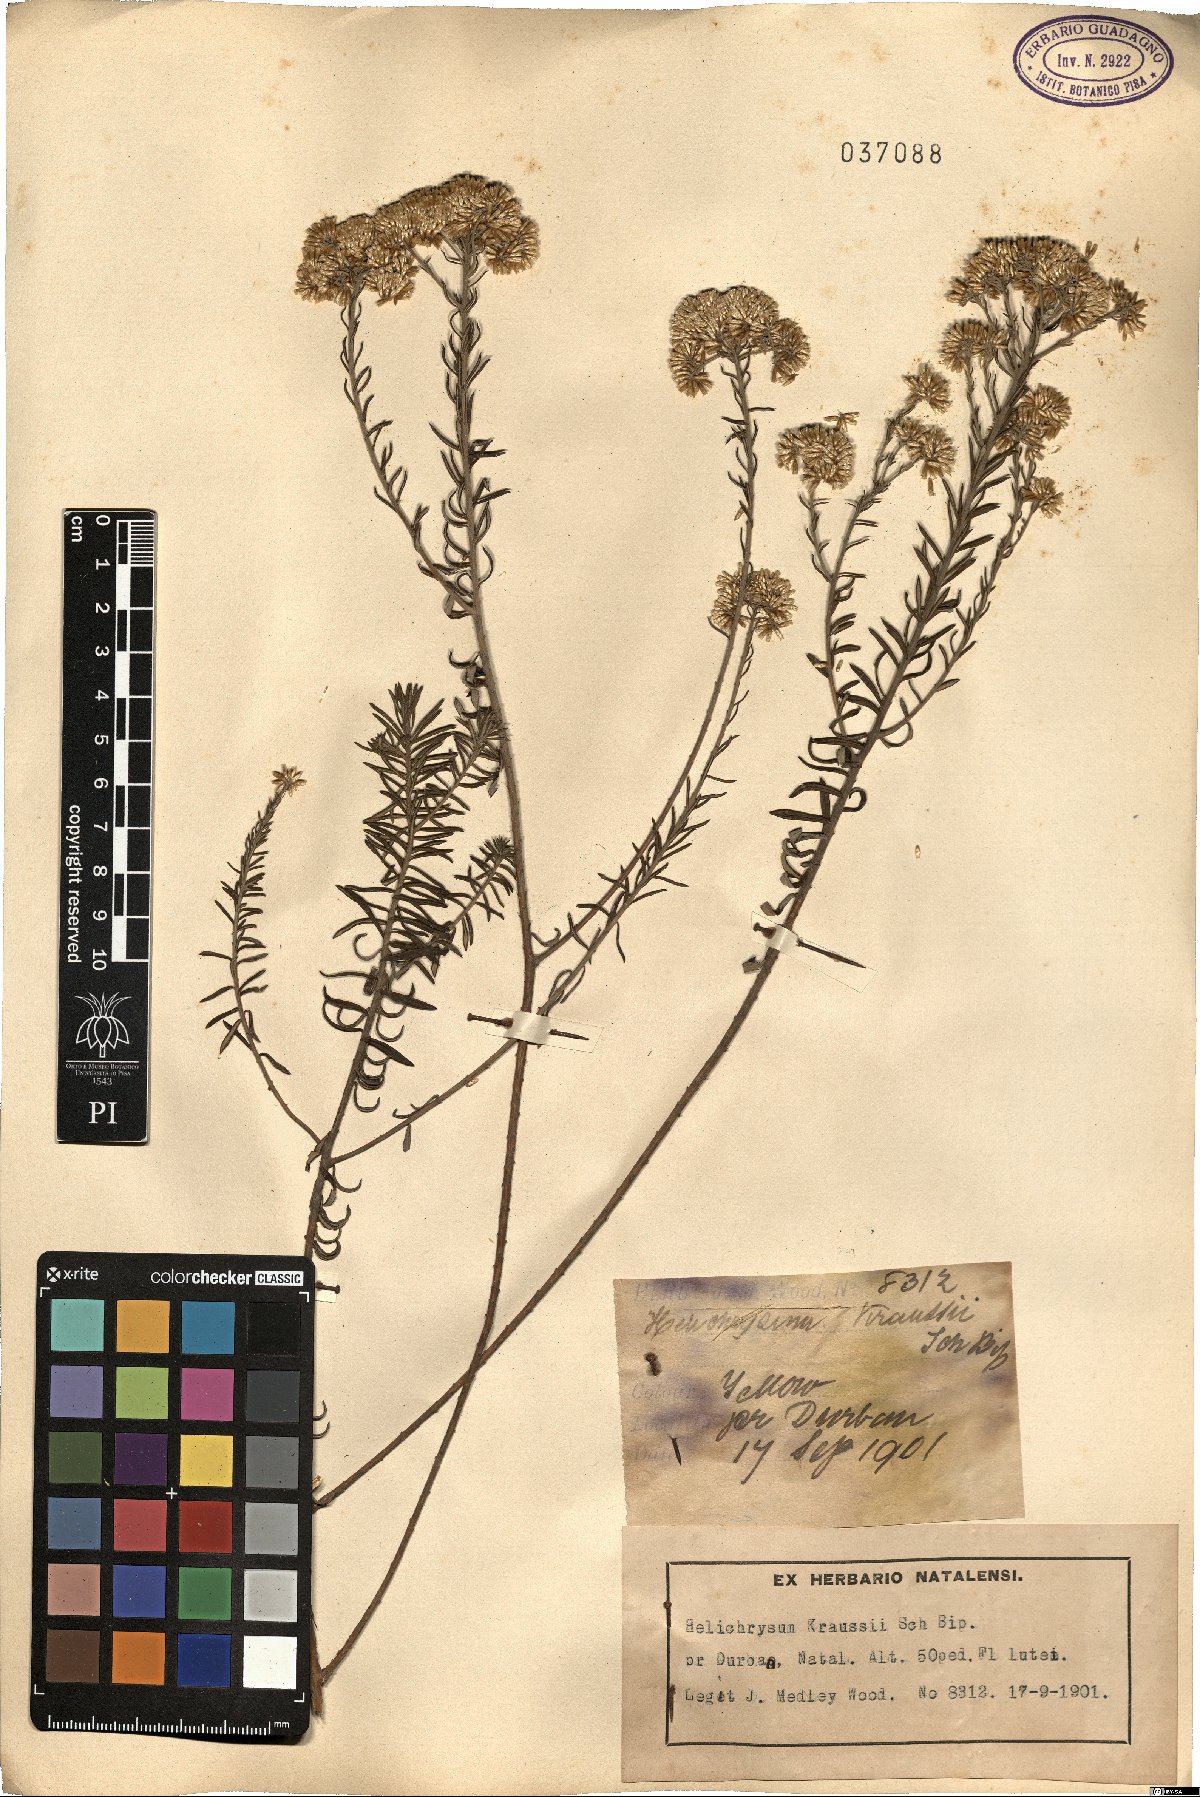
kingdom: Plantae
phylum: Tracheophyta
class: Magnoliopsida
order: Asterales
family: Asteraceae
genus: Helichrysum
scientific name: Helichrysum kraussii
